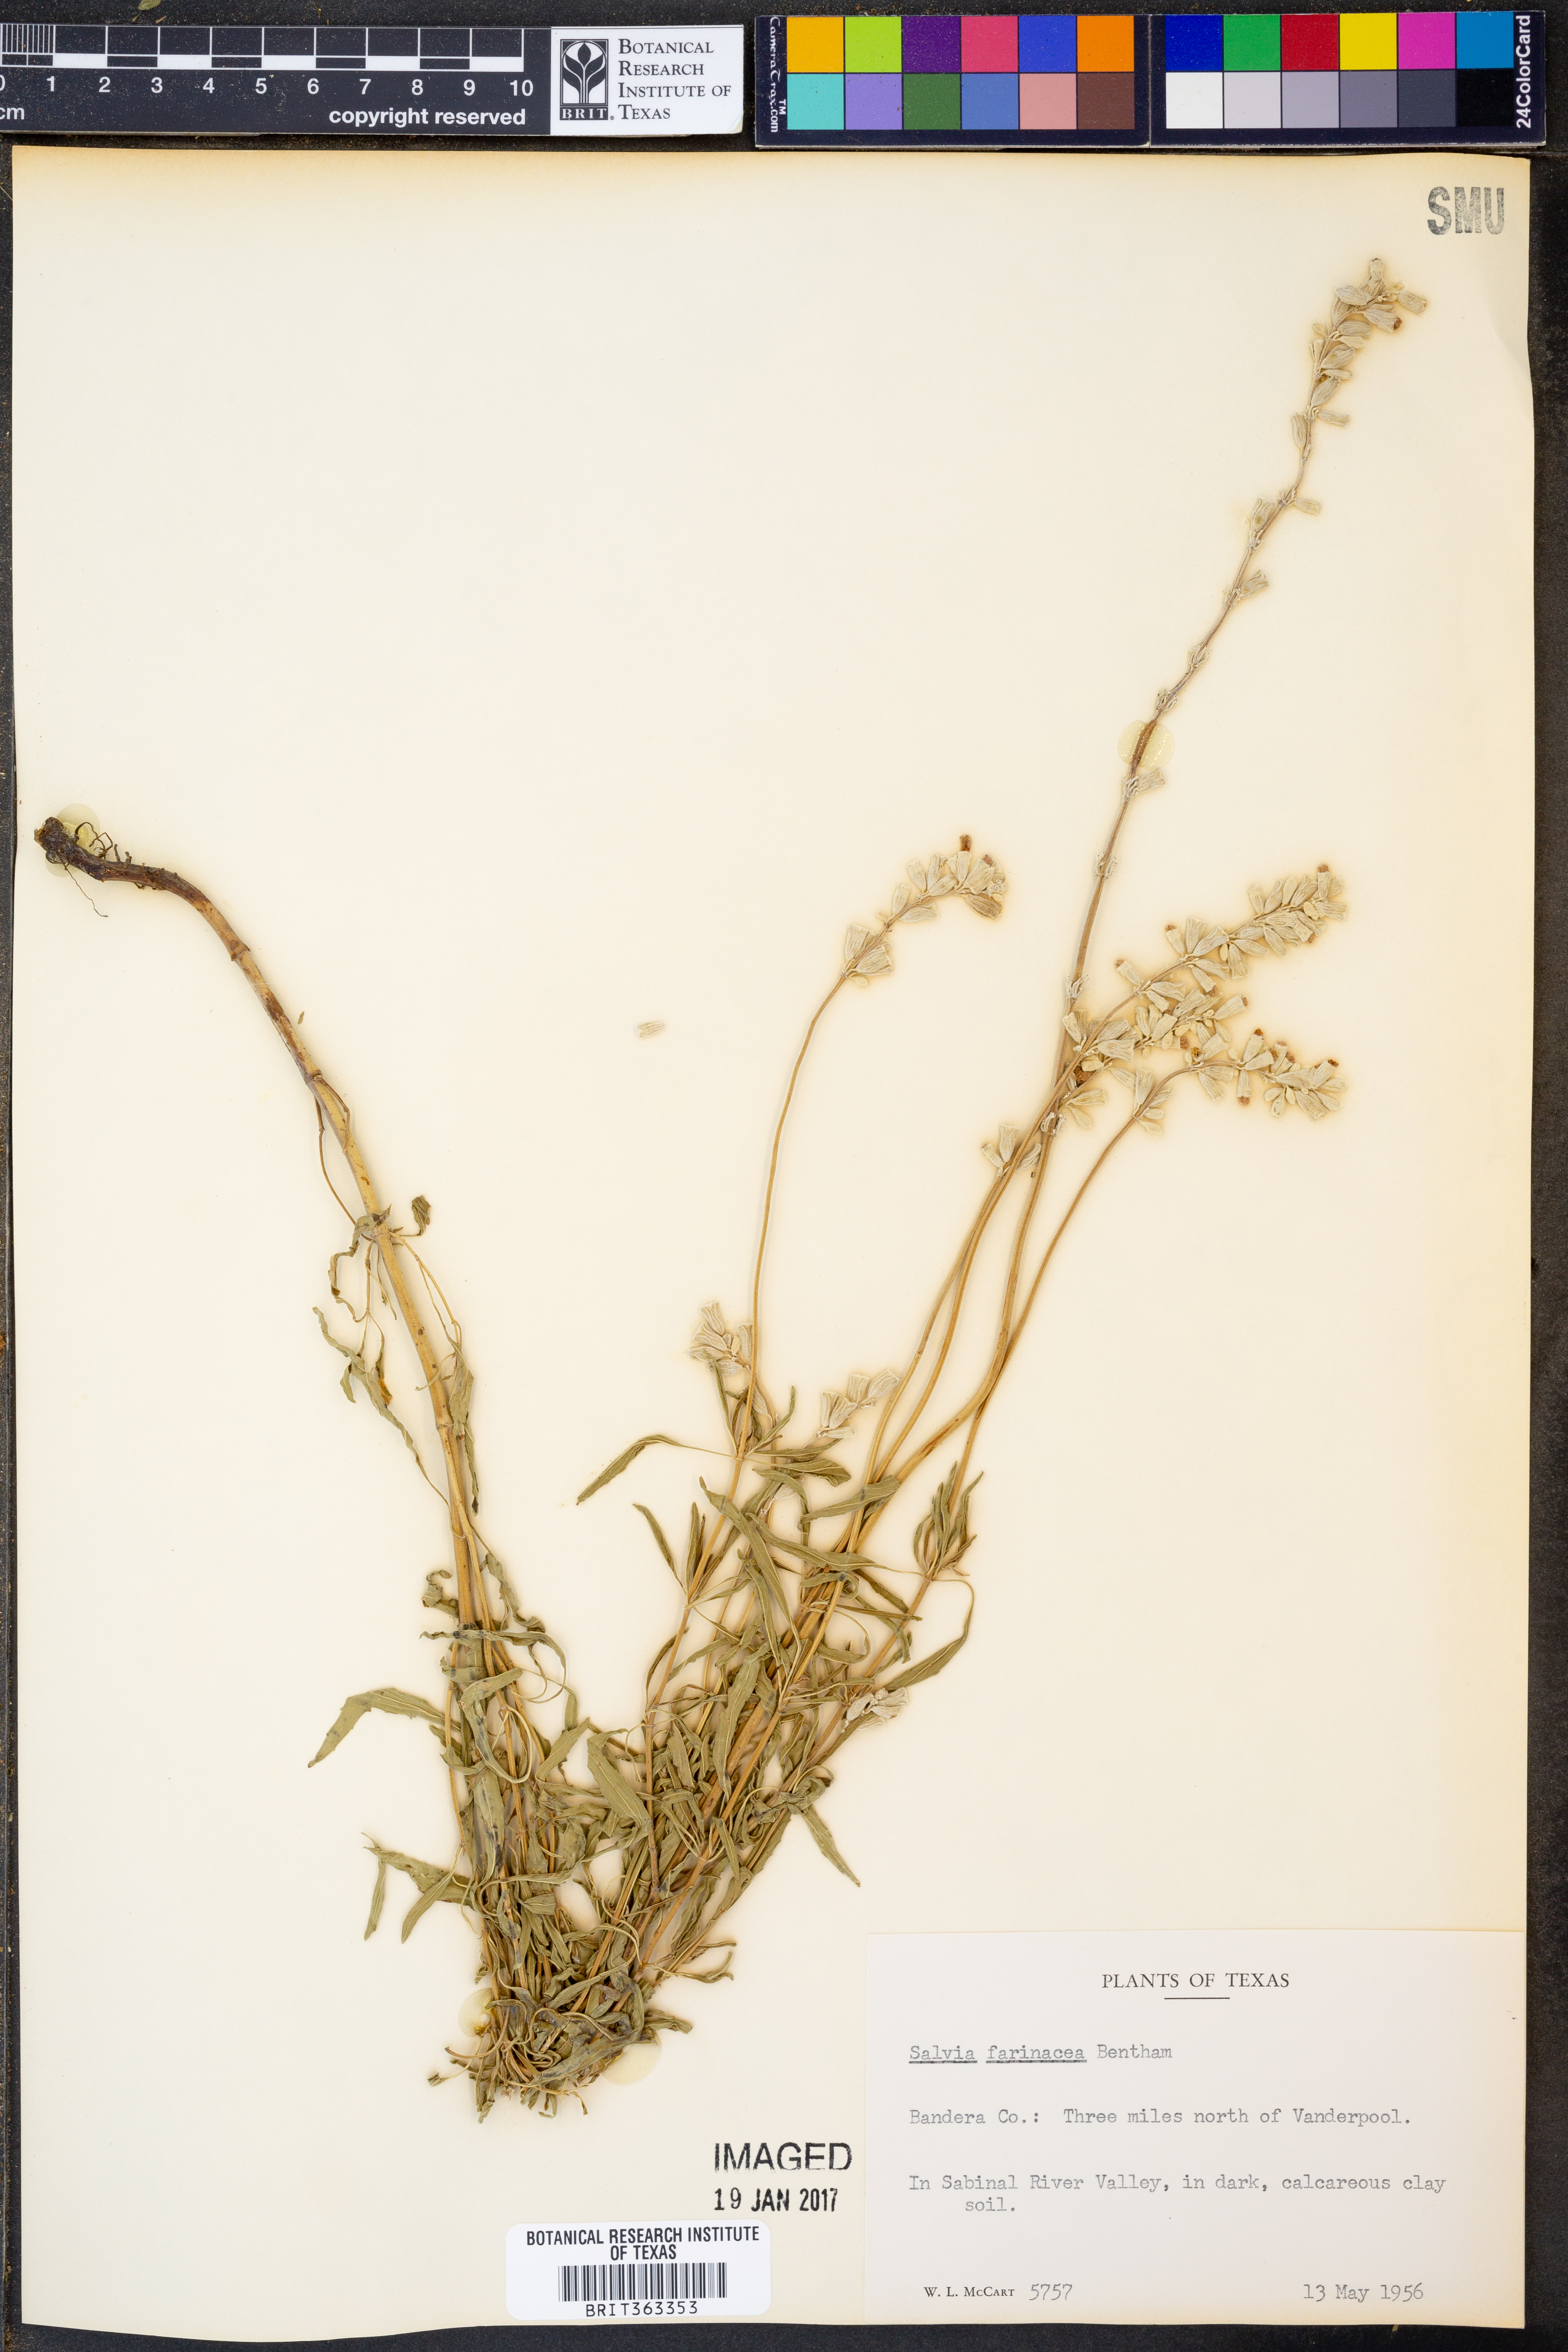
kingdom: Plantae
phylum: Tracheophyta
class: Magnoliopsida
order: Lamiales
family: Lamiaceae
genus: Salvia
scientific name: Salvia farinacea
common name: Mealy sage
